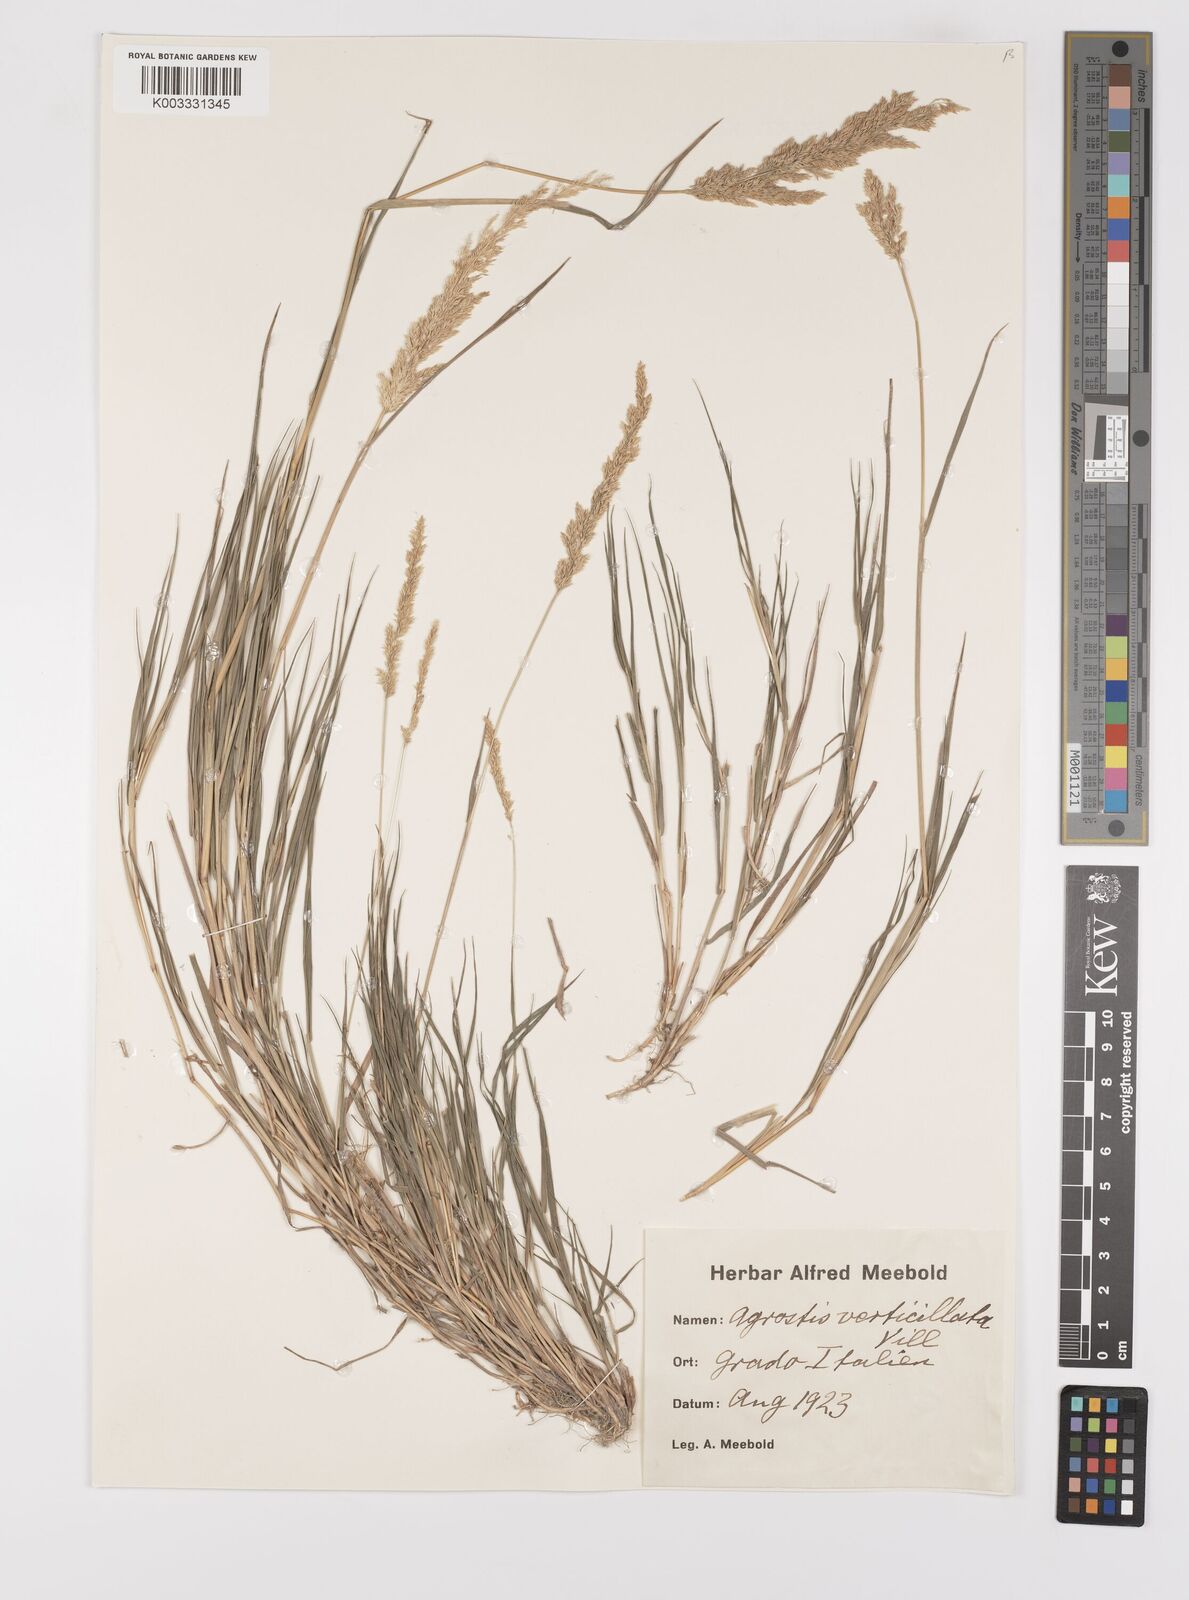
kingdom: Plantae
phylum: Tracheophyta
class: Liliopsida
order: Poales
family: Poaceae
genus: Polypogon
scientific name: Polypogon viridis
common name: Water bent
